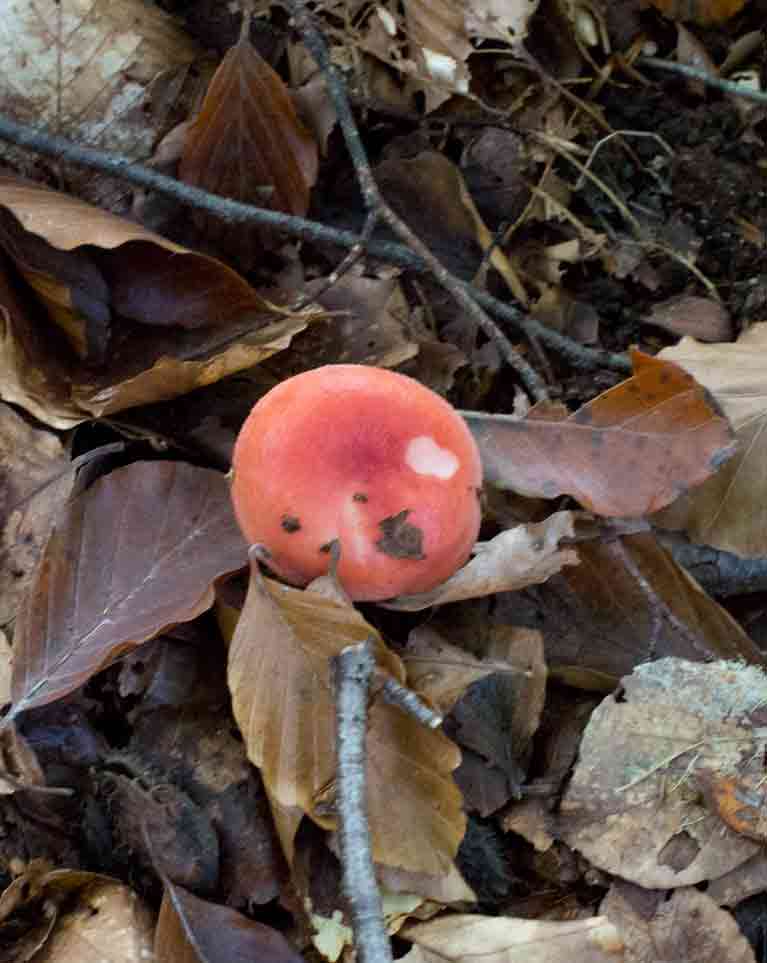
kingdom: Fungi
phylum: Basidiomycota
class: Agaricomycetes
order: Russulales
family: Russulaceae
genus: Russula
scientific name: Russula
